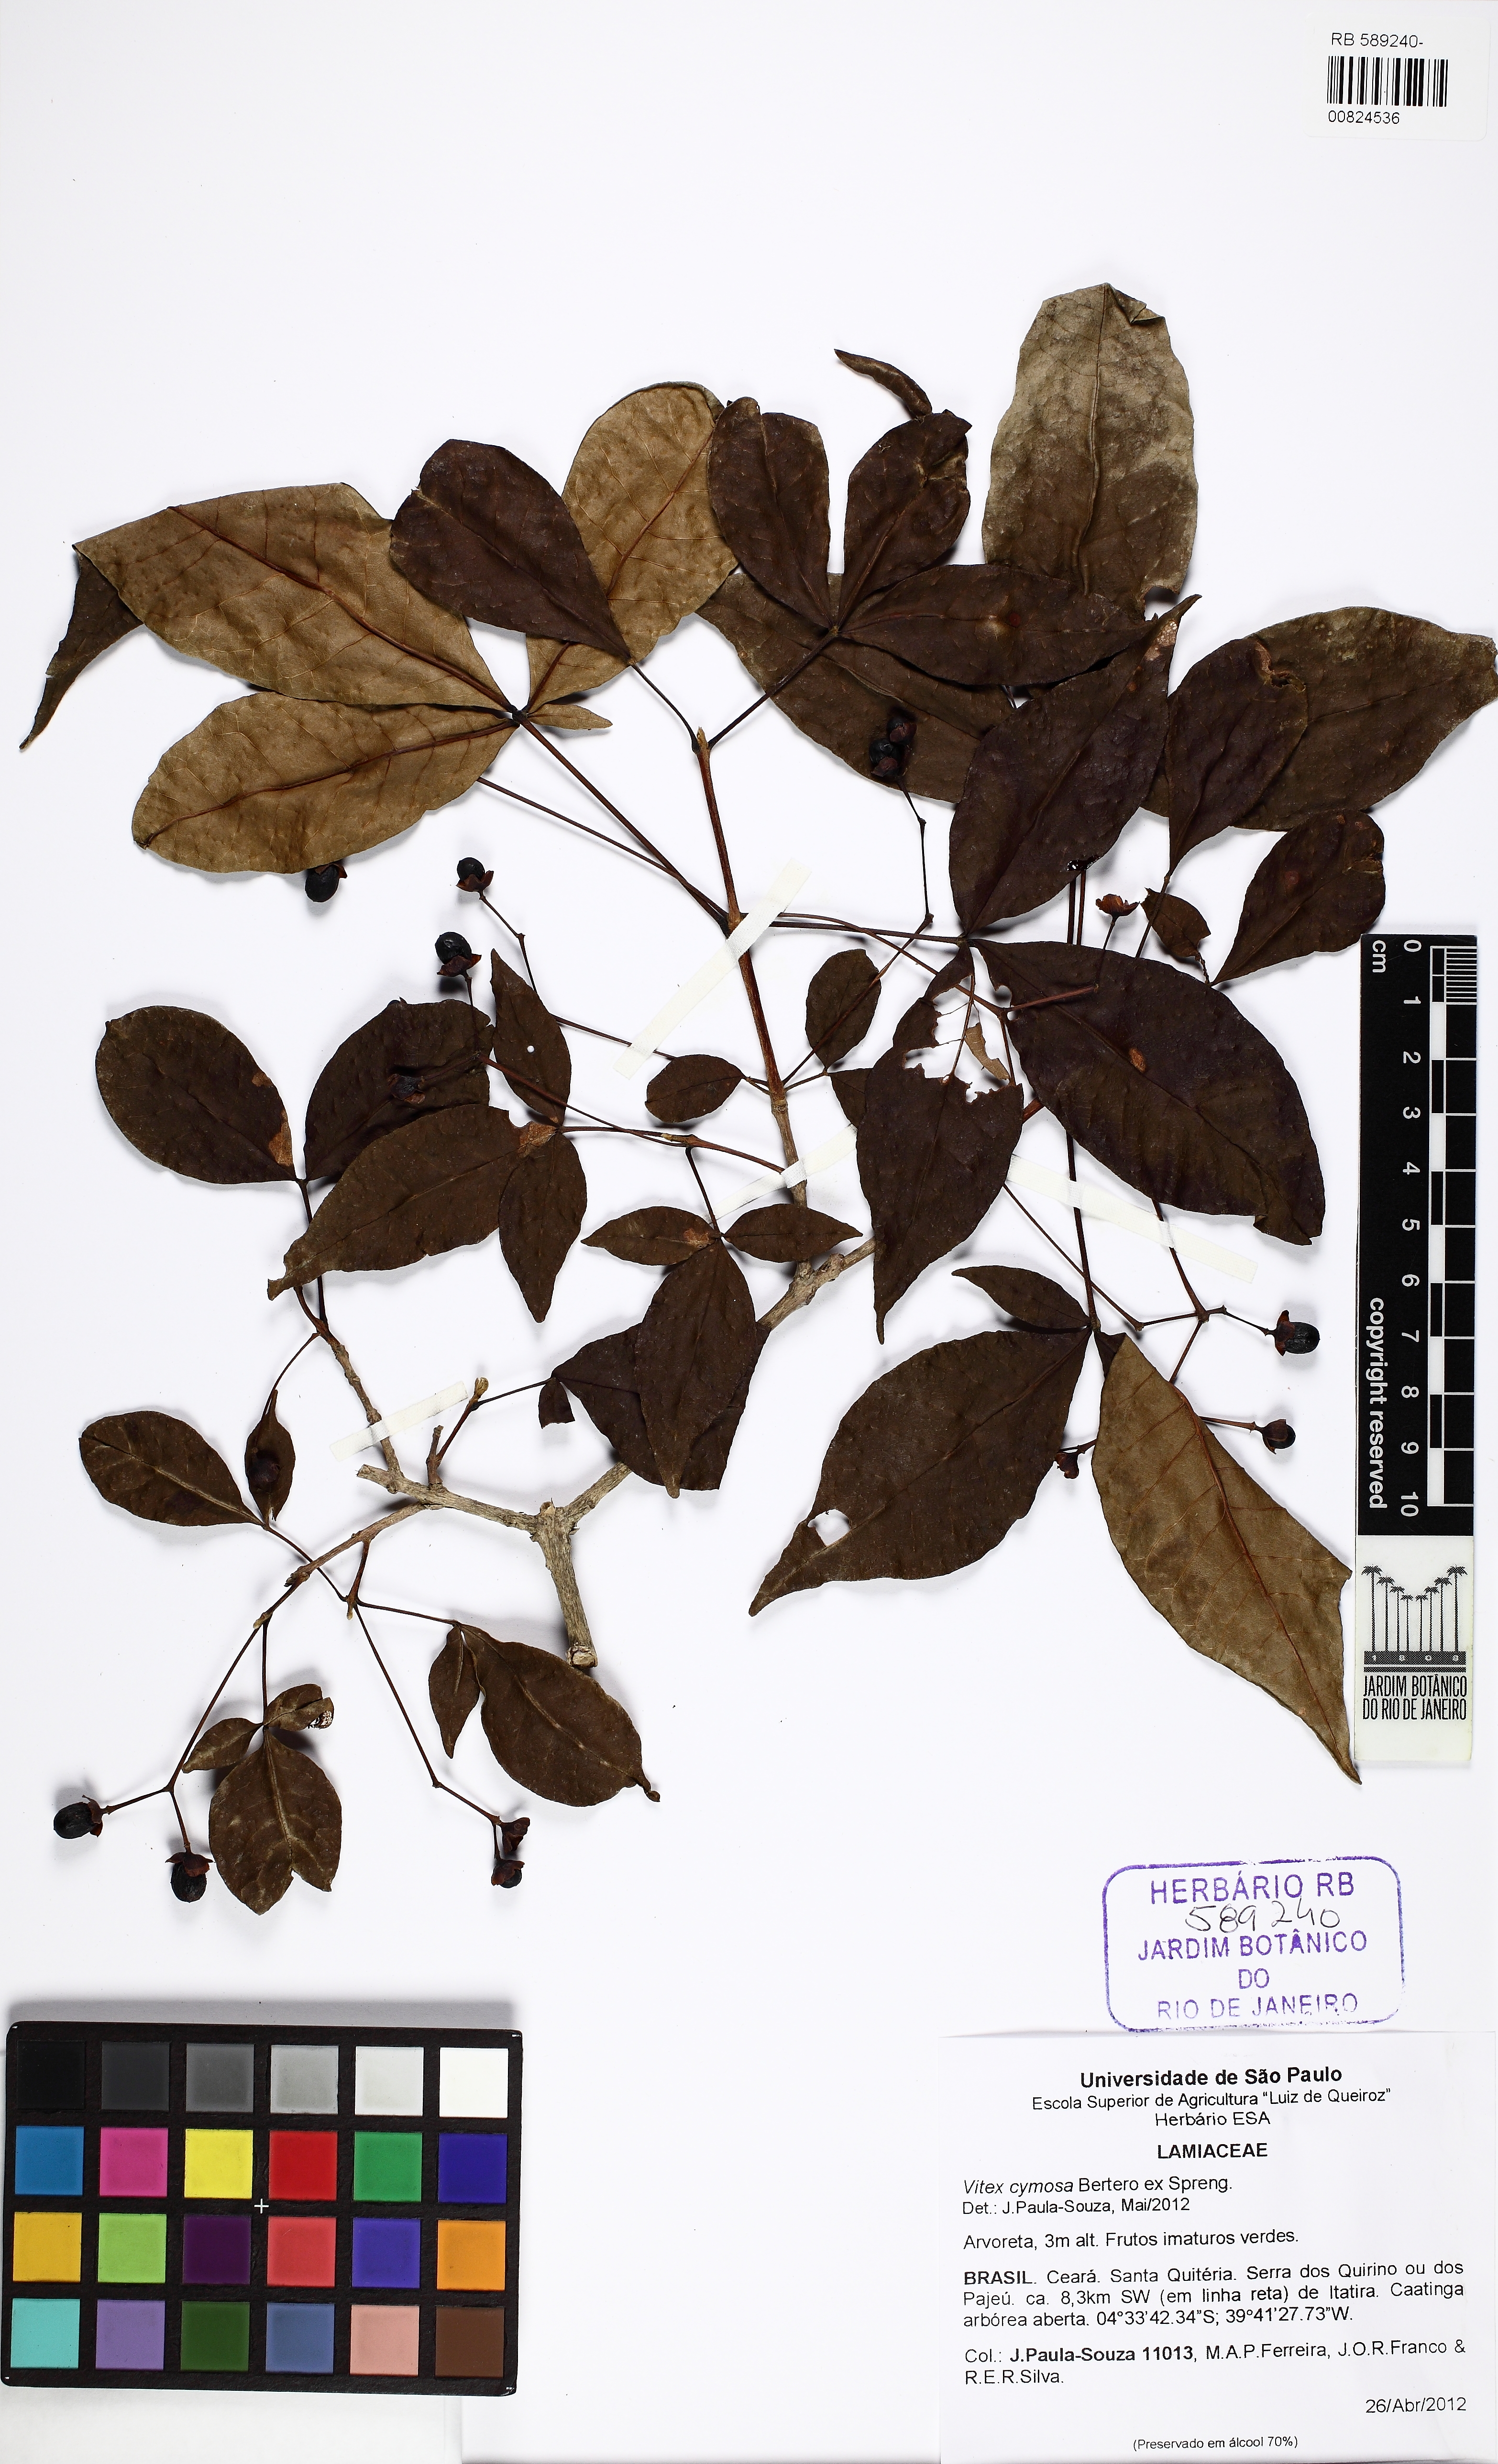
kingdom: Plantae
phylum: Tracheophyta
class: Magnoliopsida
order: Lamiales
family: Lamiaceae
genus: Vitex
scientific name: Vitex cymosa
